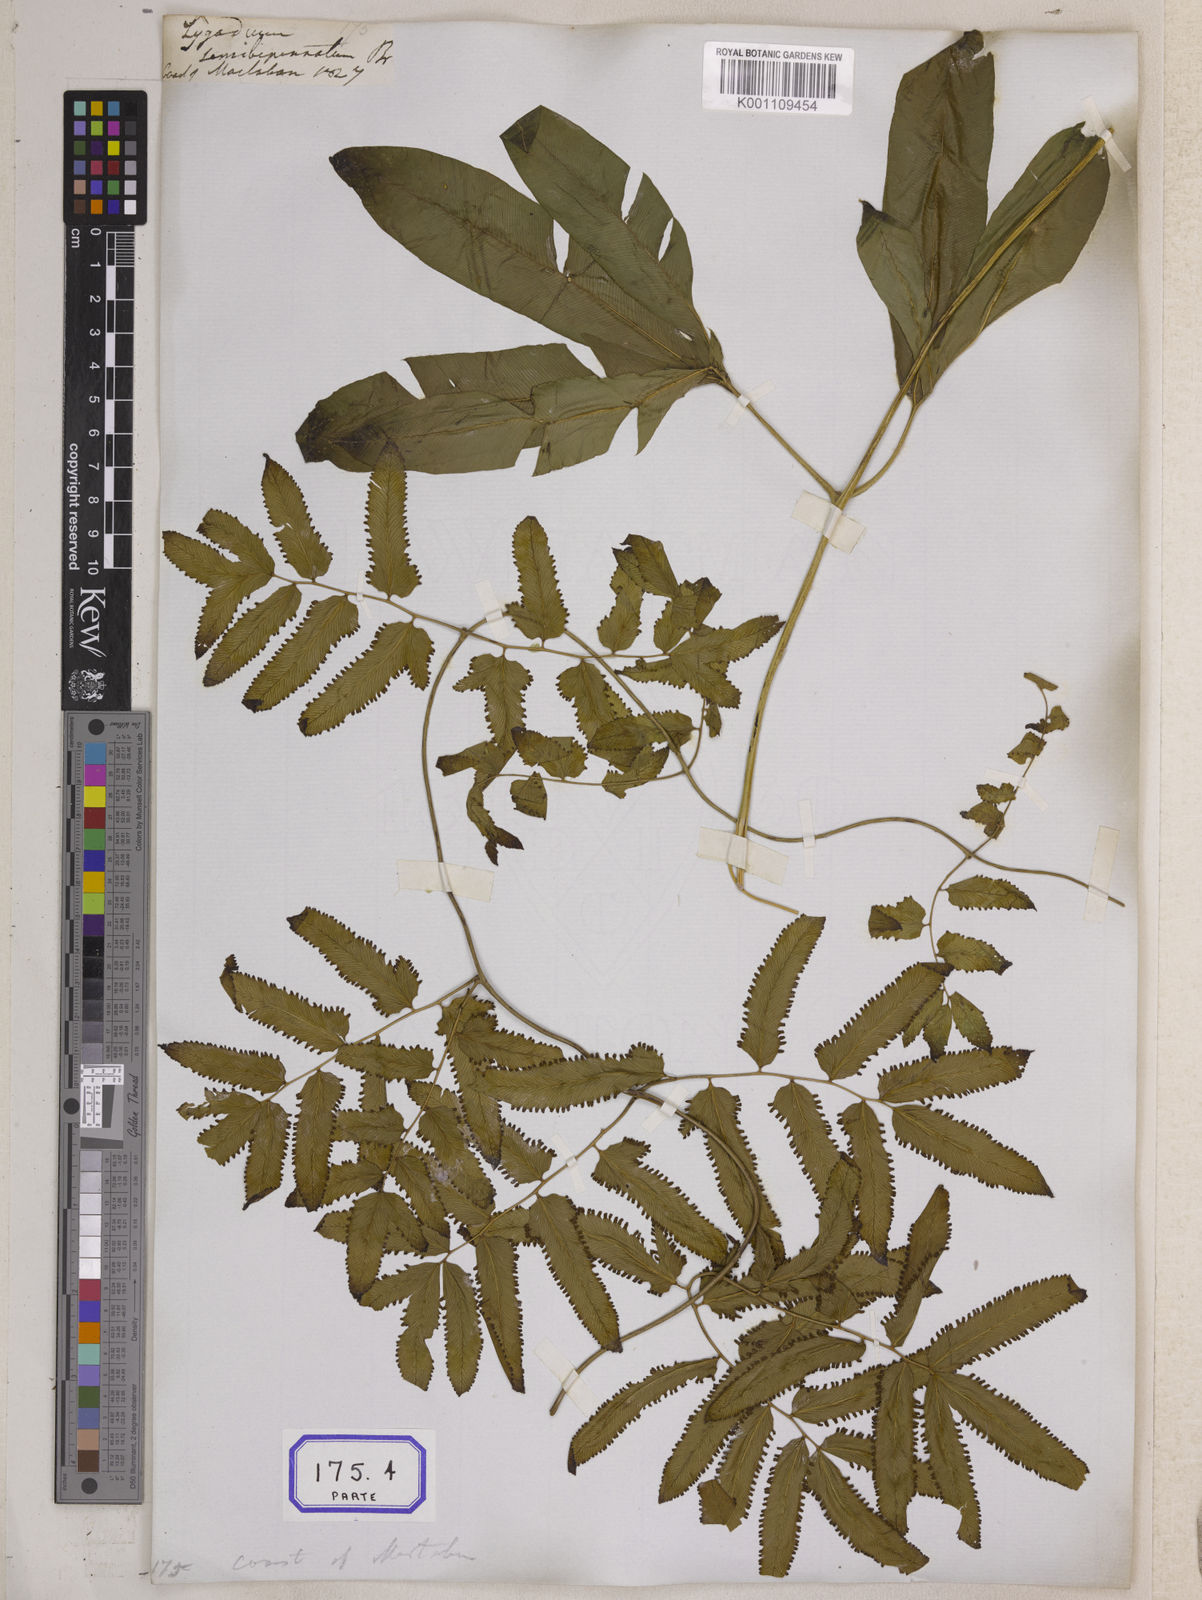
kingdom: Plantae
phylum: Tracheophyta
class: Polypodiopsida
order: Schizaeales
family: Lygodiaceae
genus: Lygodium
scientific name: Lygodium flexuosum
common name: Maidenhair creeper
